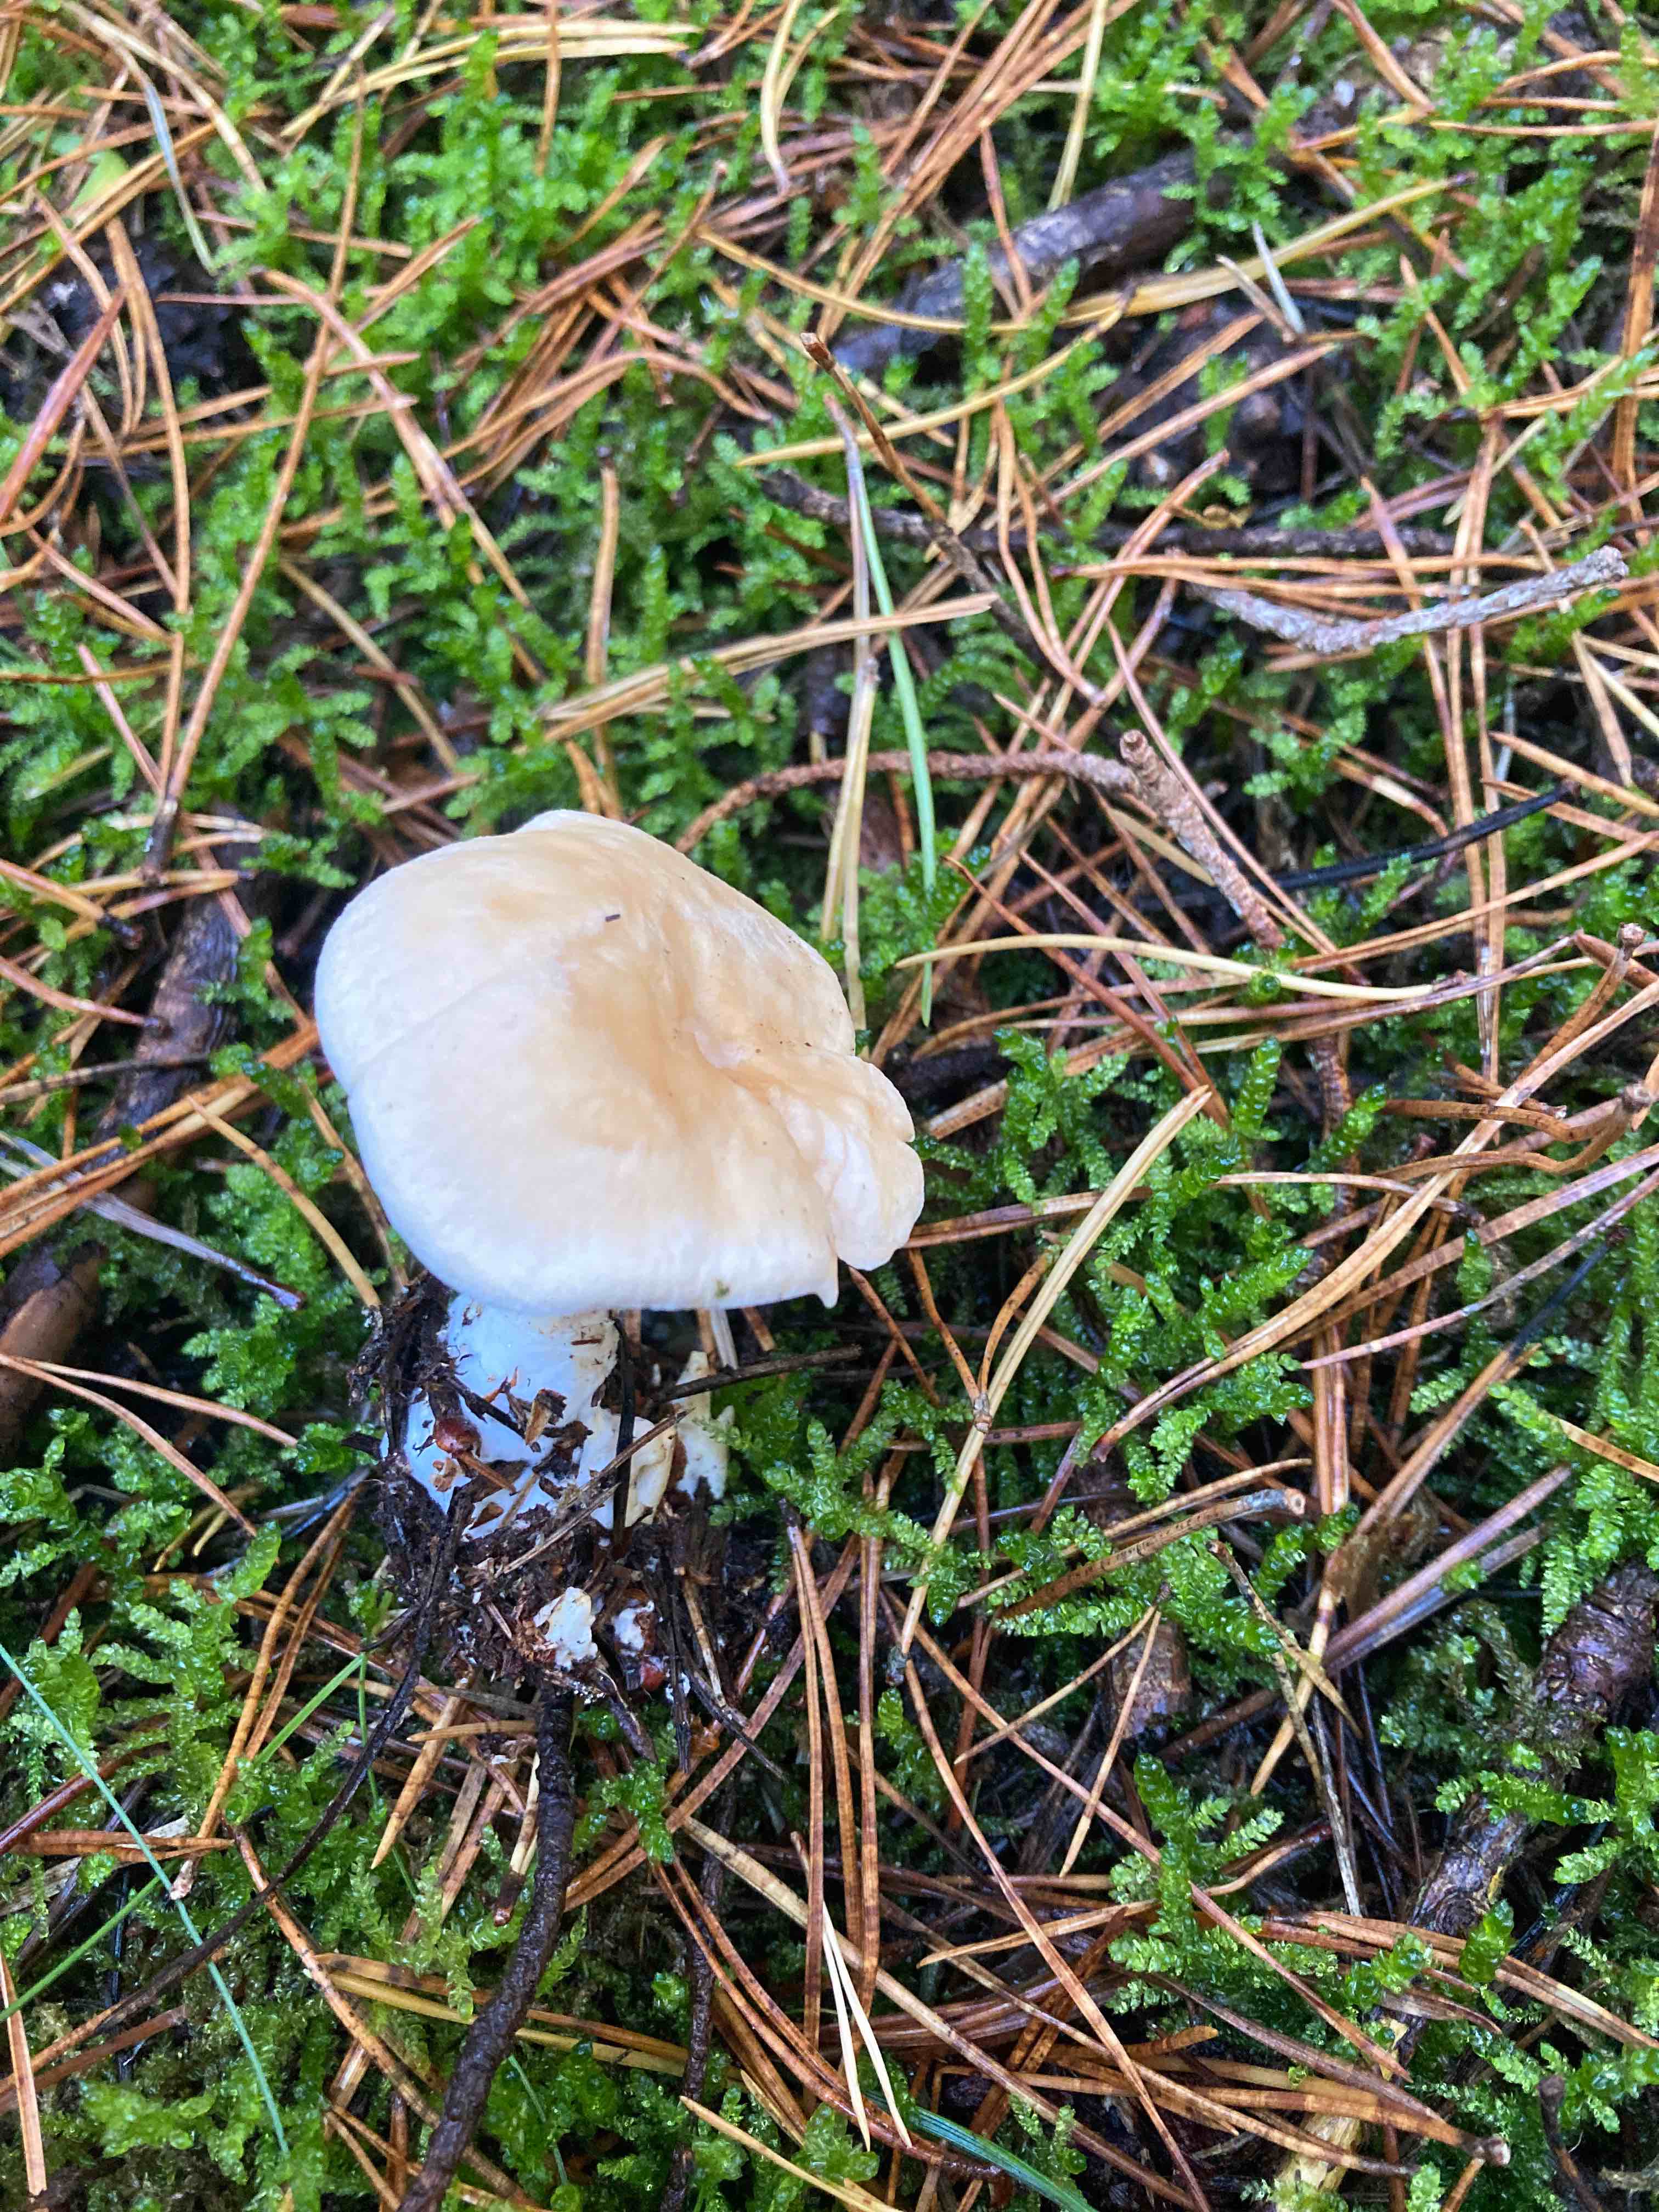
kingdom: Fungi
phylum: Basidiomycota
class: Agaricomycetes
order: Cantharellales
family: Hydnaceae
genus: Hydnum
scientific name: Hydnum repandum
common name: almindelig pigsvamp
